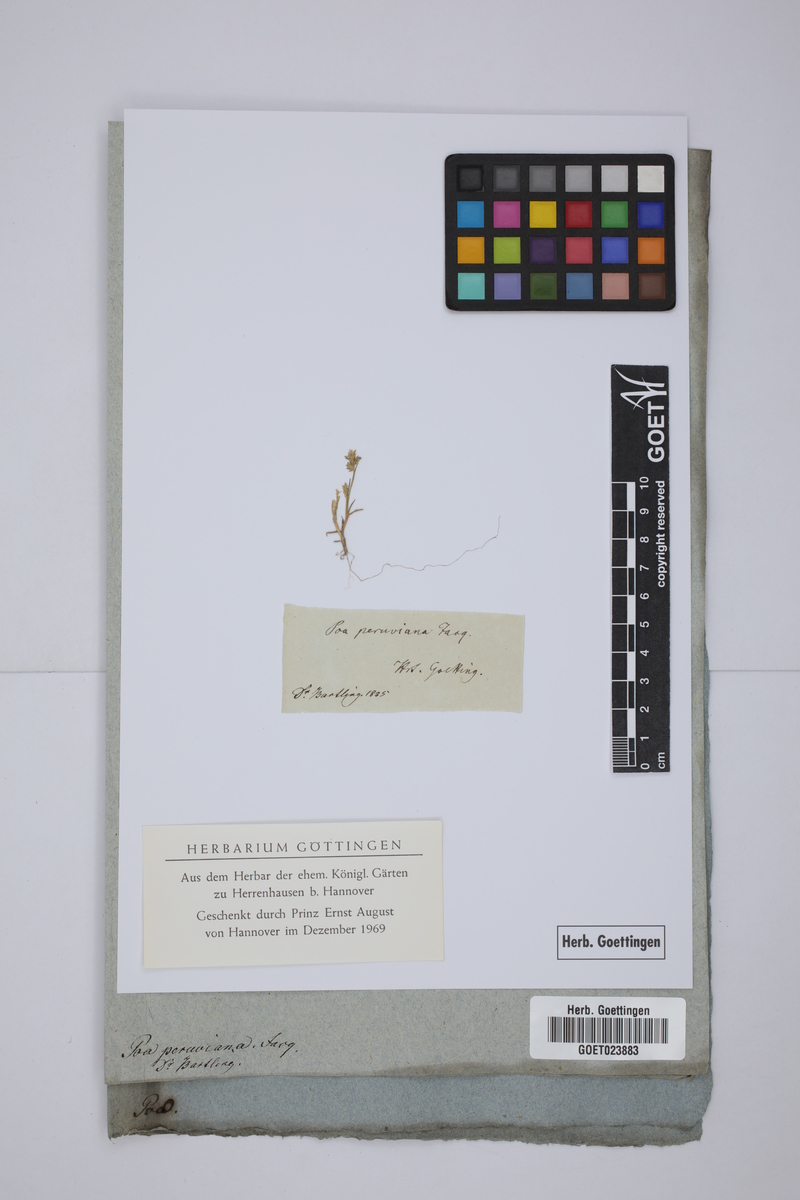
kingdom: Plantae
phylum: Tracheophyta
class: Liliopsida
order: Poales
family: Poaceae
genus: Eragrostis
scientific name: Eragrostis peruviana
